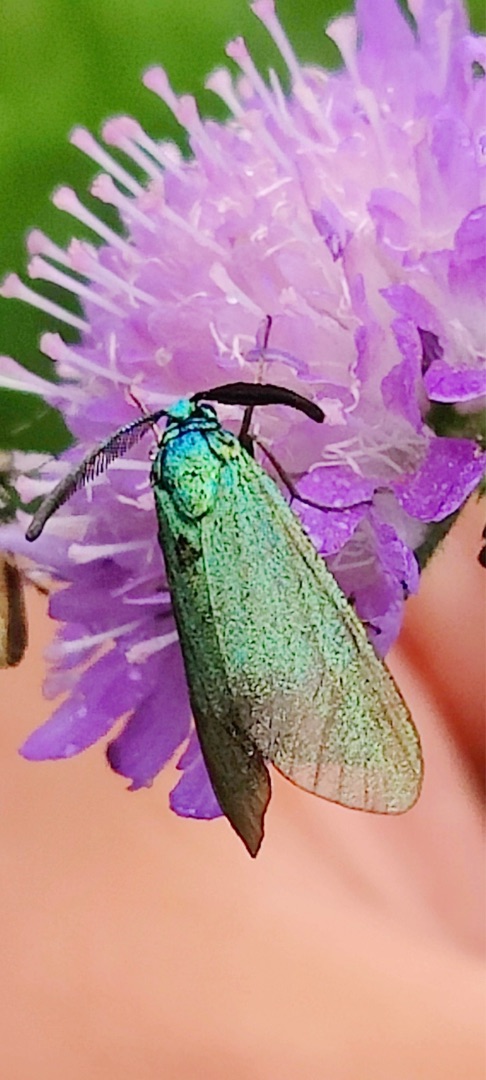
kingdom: Animalia
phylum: Arthropoda
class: Insecta
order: Lepidoptera
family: Zygaenidae
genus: Adscita
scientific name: Adscita statices
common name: Metalvinge
